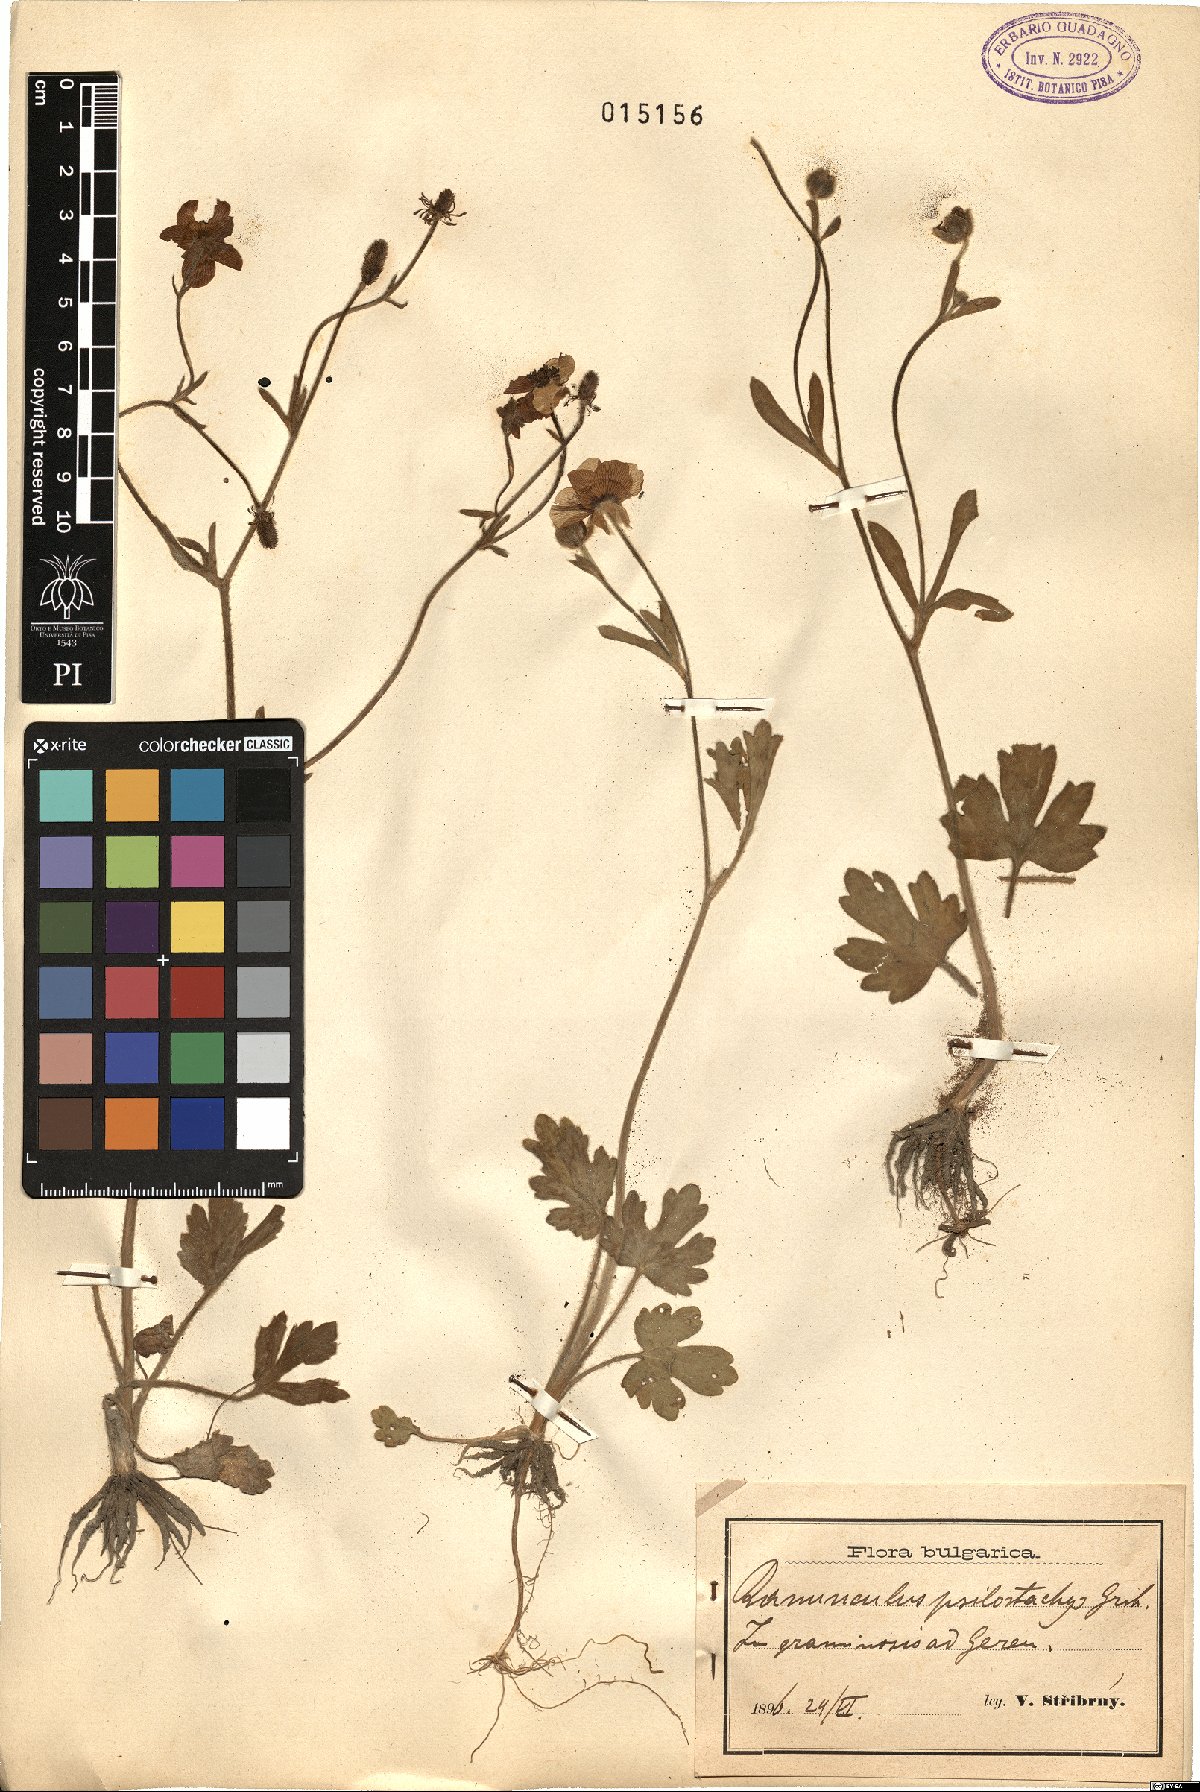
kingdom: Plantae
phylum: Tracheophyta
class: Magnoliopsida
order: Ranunculales
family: Ranunculaceae
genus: Ranunculus
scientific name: Ranunculus psilostachys
